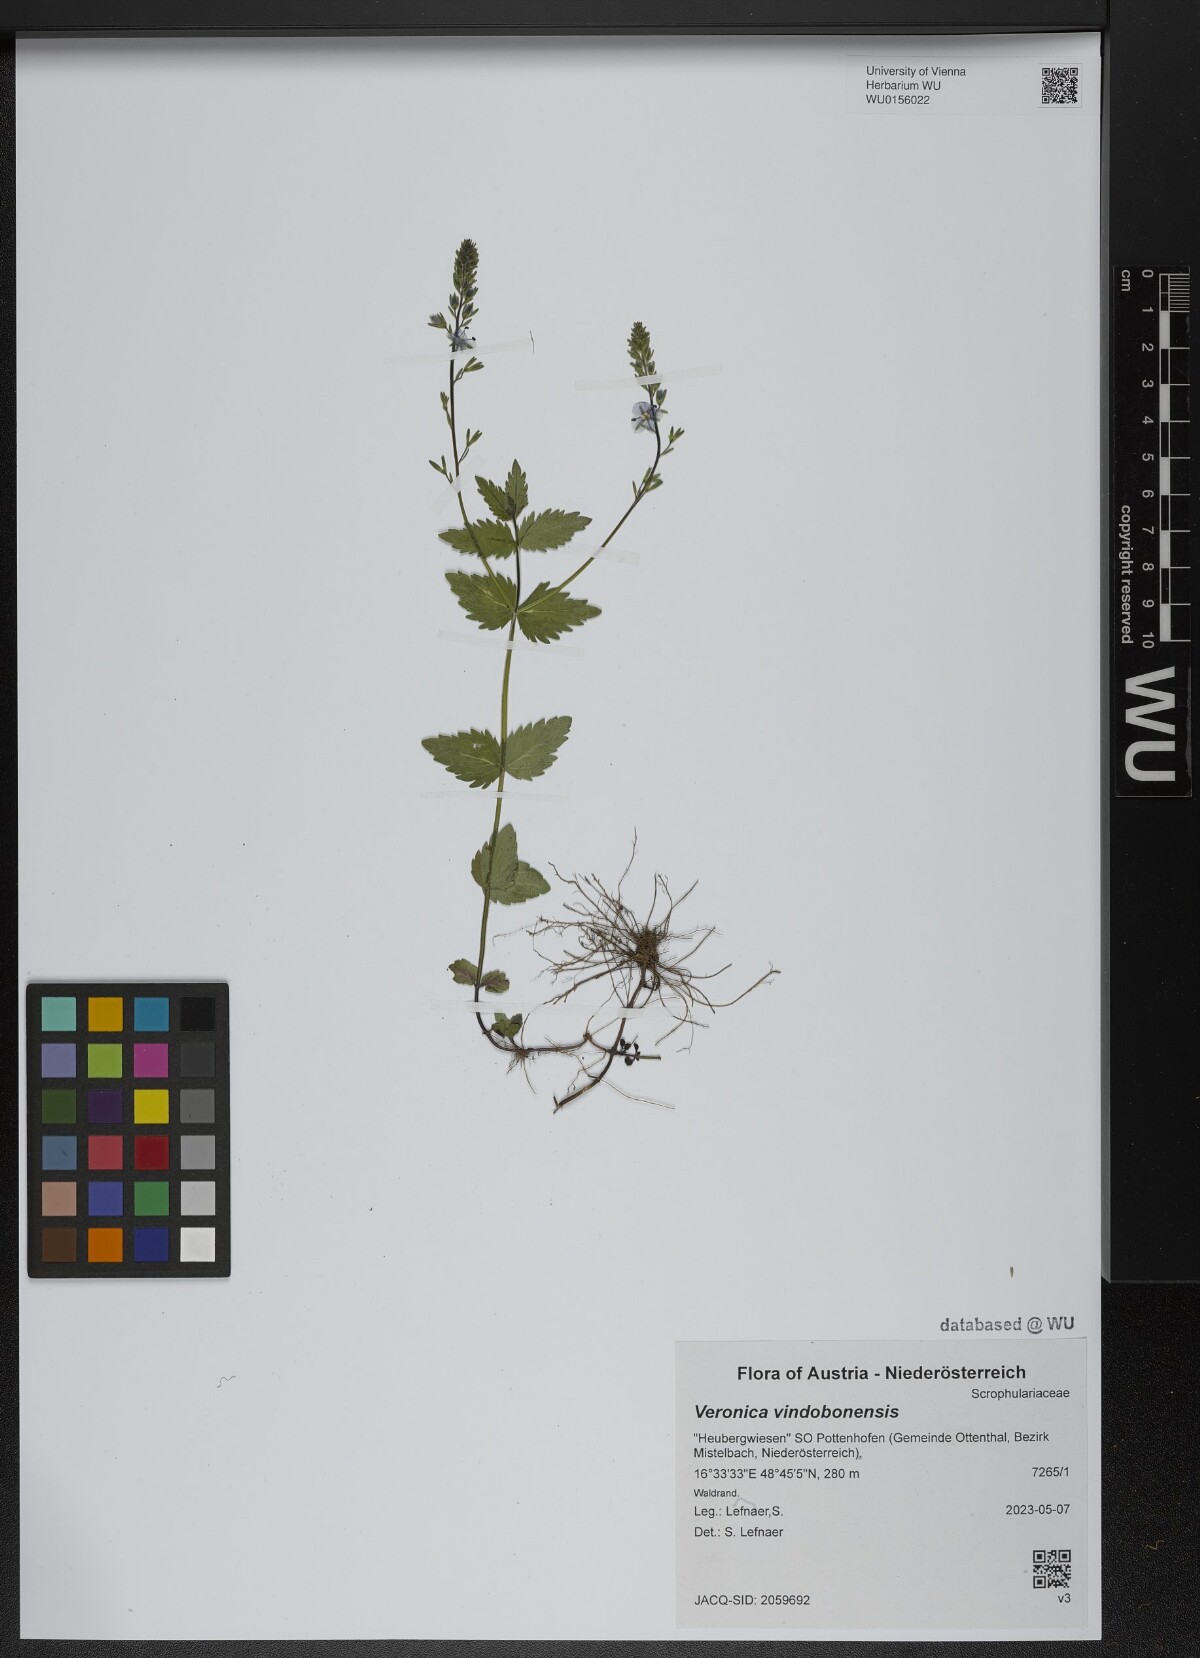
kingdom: Plantae
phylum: Tracheophyta
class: Magnoliopsida
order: Lamiales
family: Plantaginaceae
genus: Veronica
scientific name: Veronica vindobonensis
